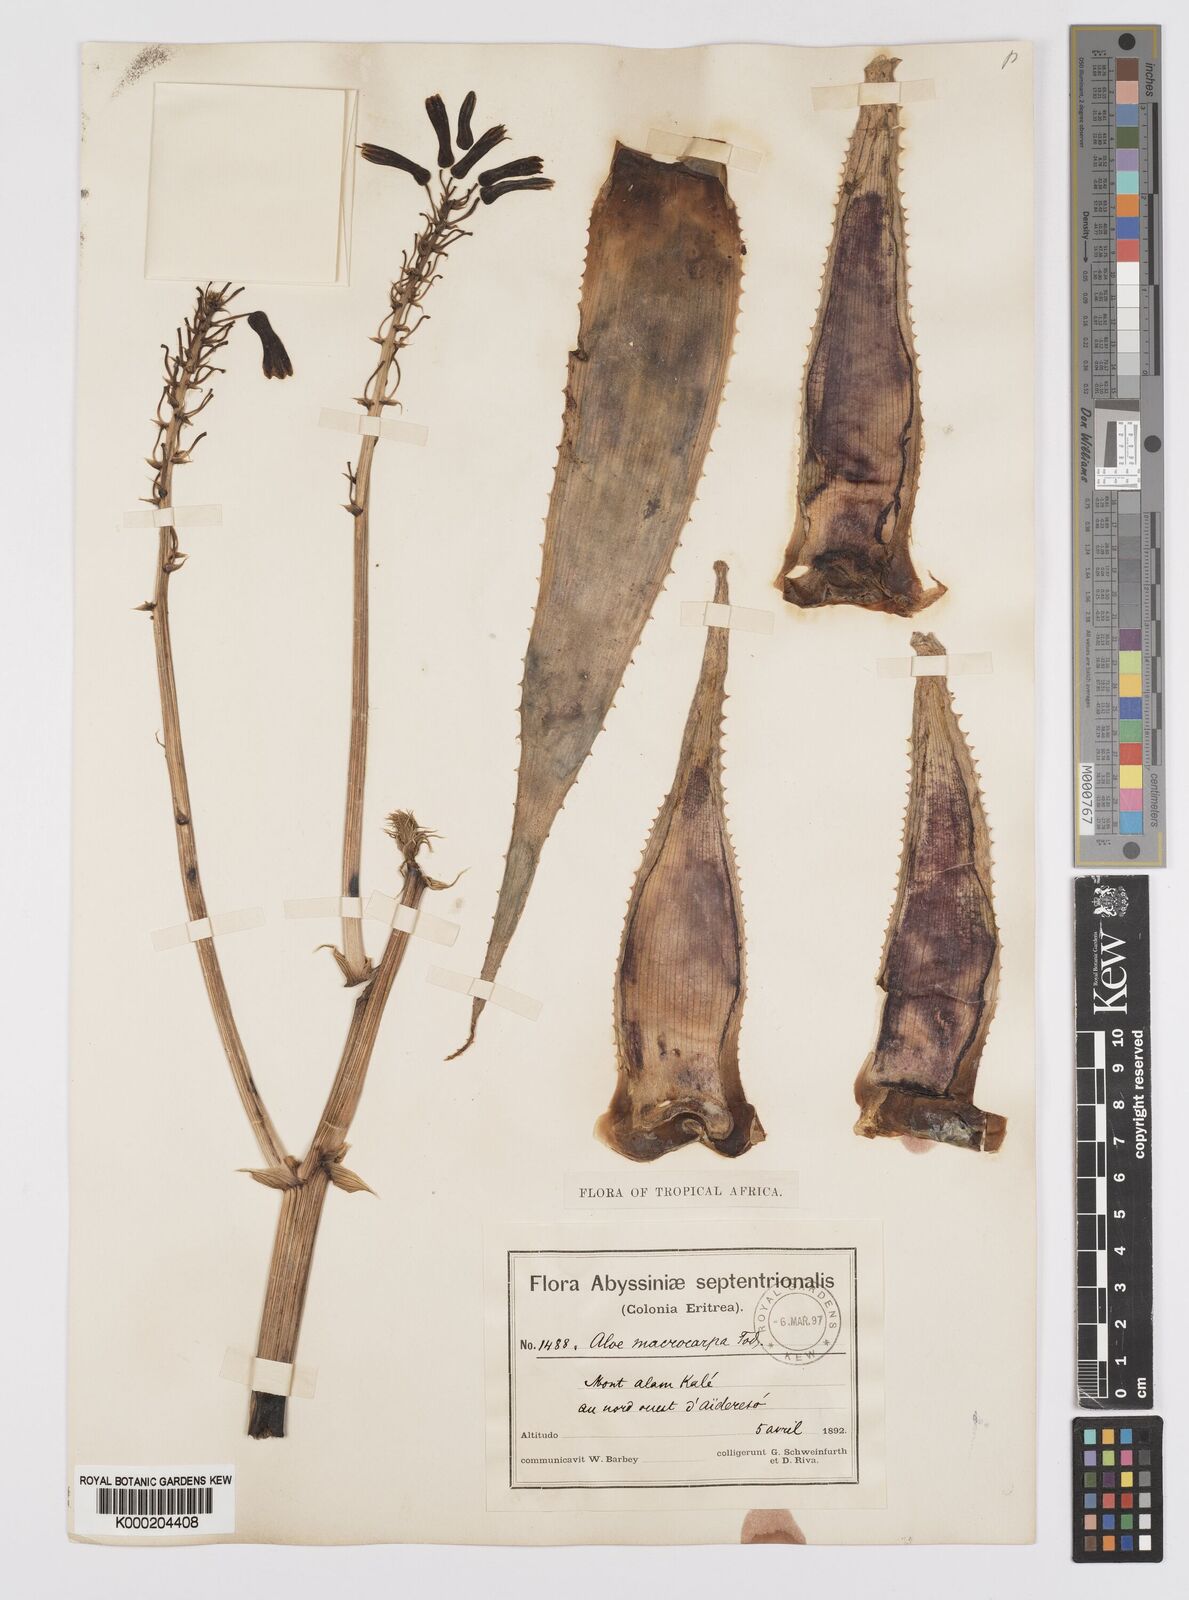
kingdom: Plantae
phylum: Tracheophyta
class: Liliopsida
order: Asparagales
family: Asphodelaceae
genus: Aloe
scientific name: Aloe macrocarpa
